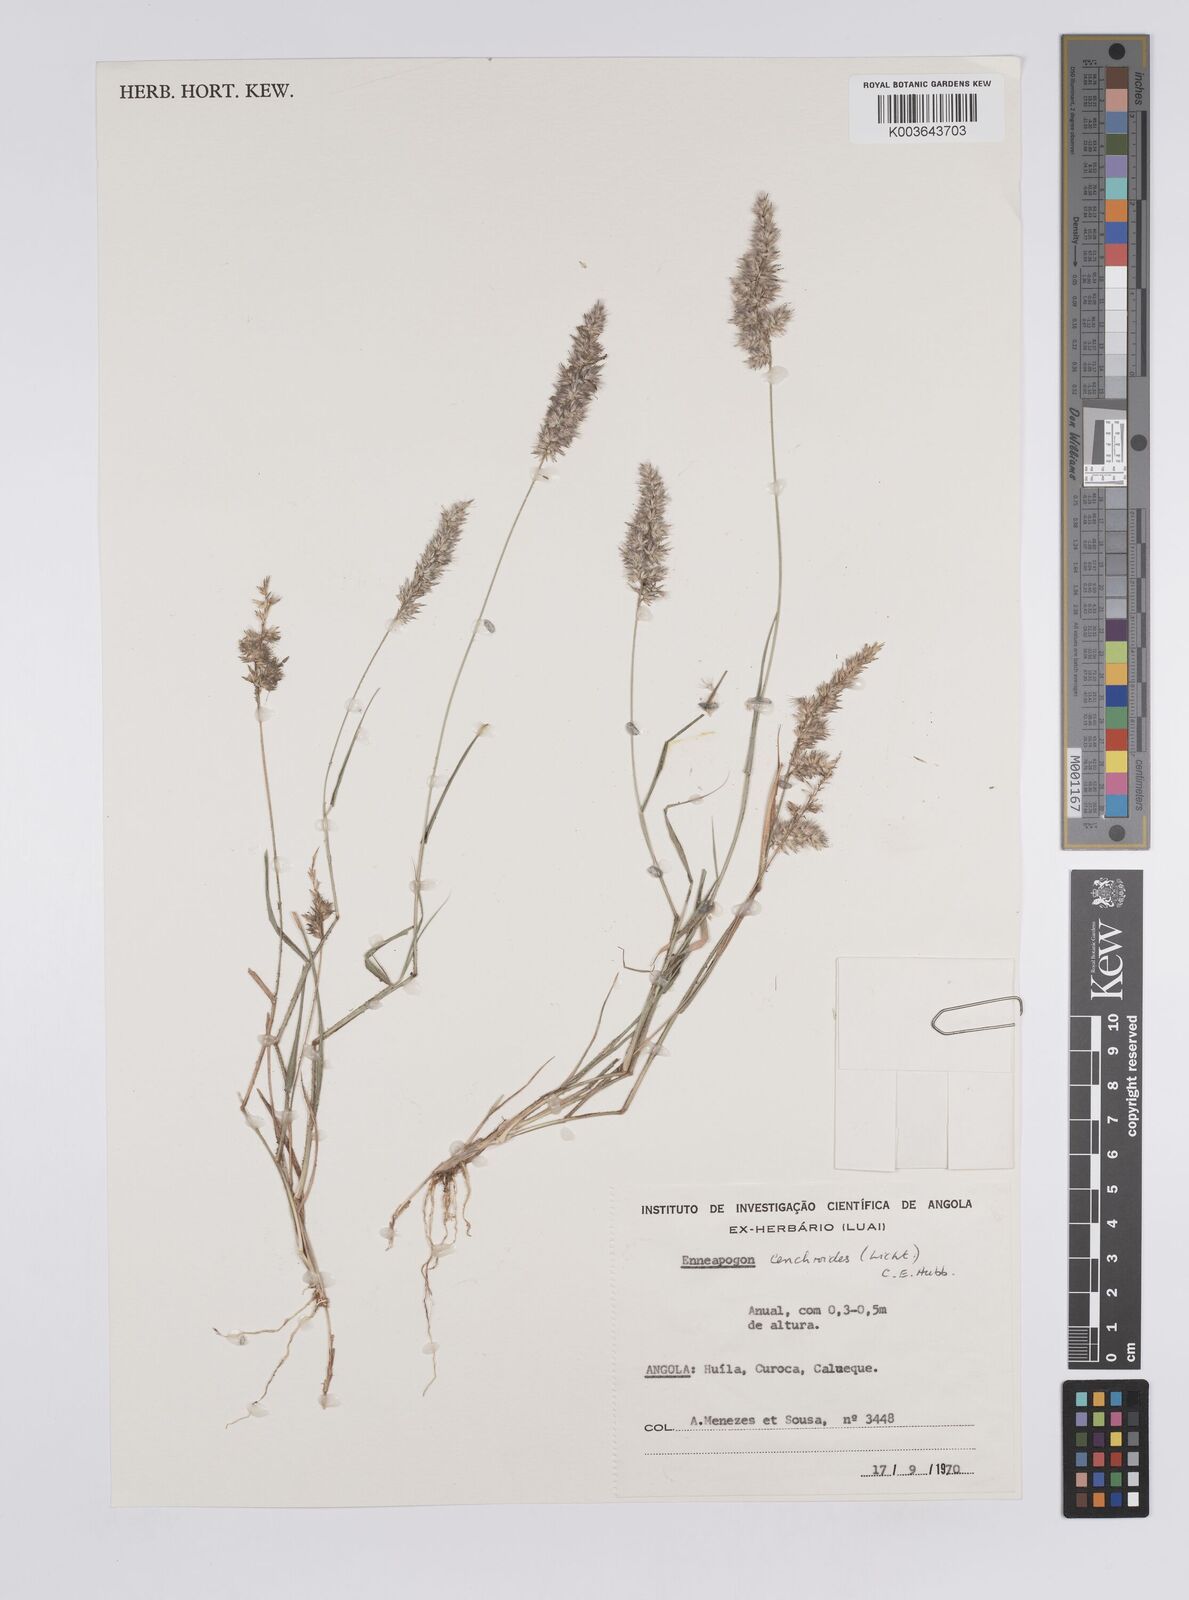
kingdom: Plantae
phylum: Tracheophyta
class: Liliopsida
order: Poales
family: Poaceae
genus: Enneapogon
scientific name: Enneapogon cenchroides
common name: Soft feather pappusgrass
